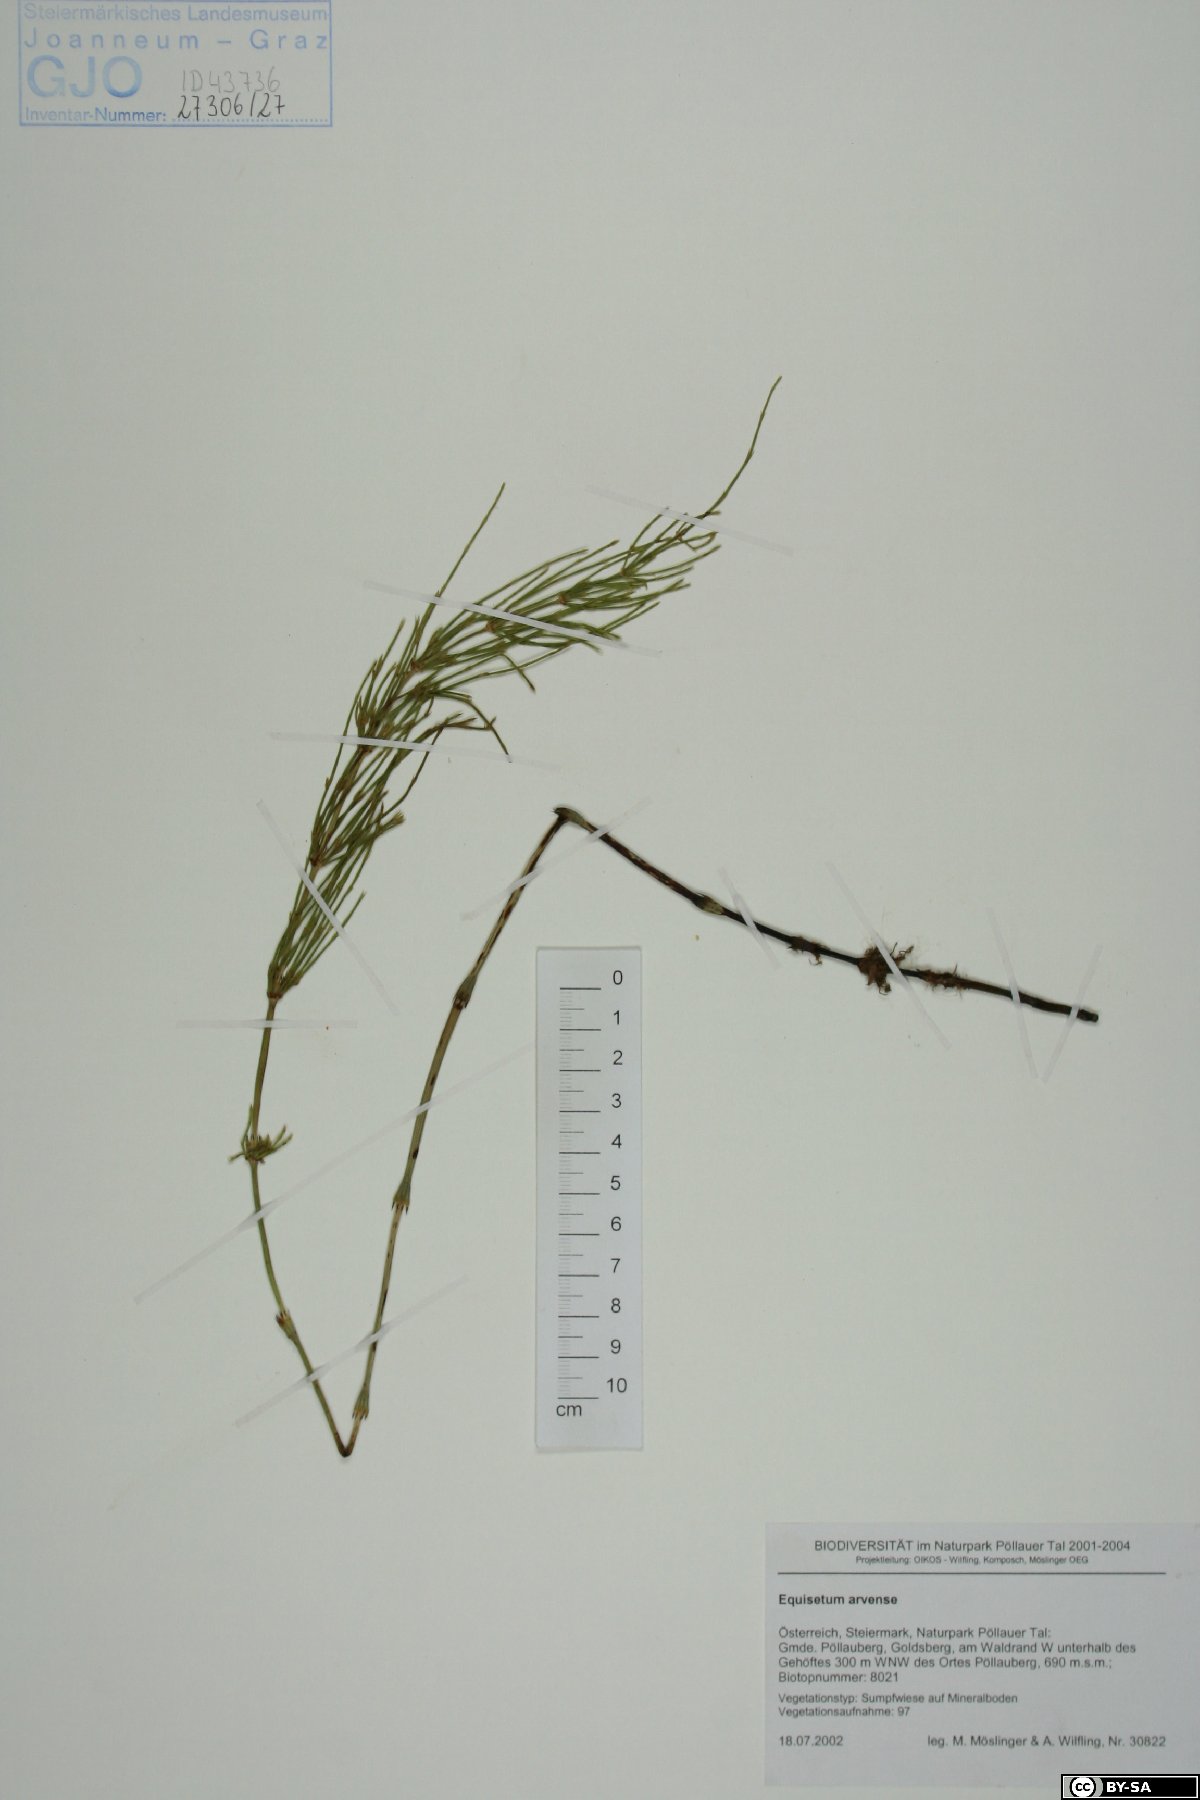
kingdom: Plantae
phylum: Tracheophyta
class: Polypodiopsida
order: Equisetales
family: Equisetaceae
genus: Equisetum
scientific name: Equisetum arvense
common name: Field horsetail
